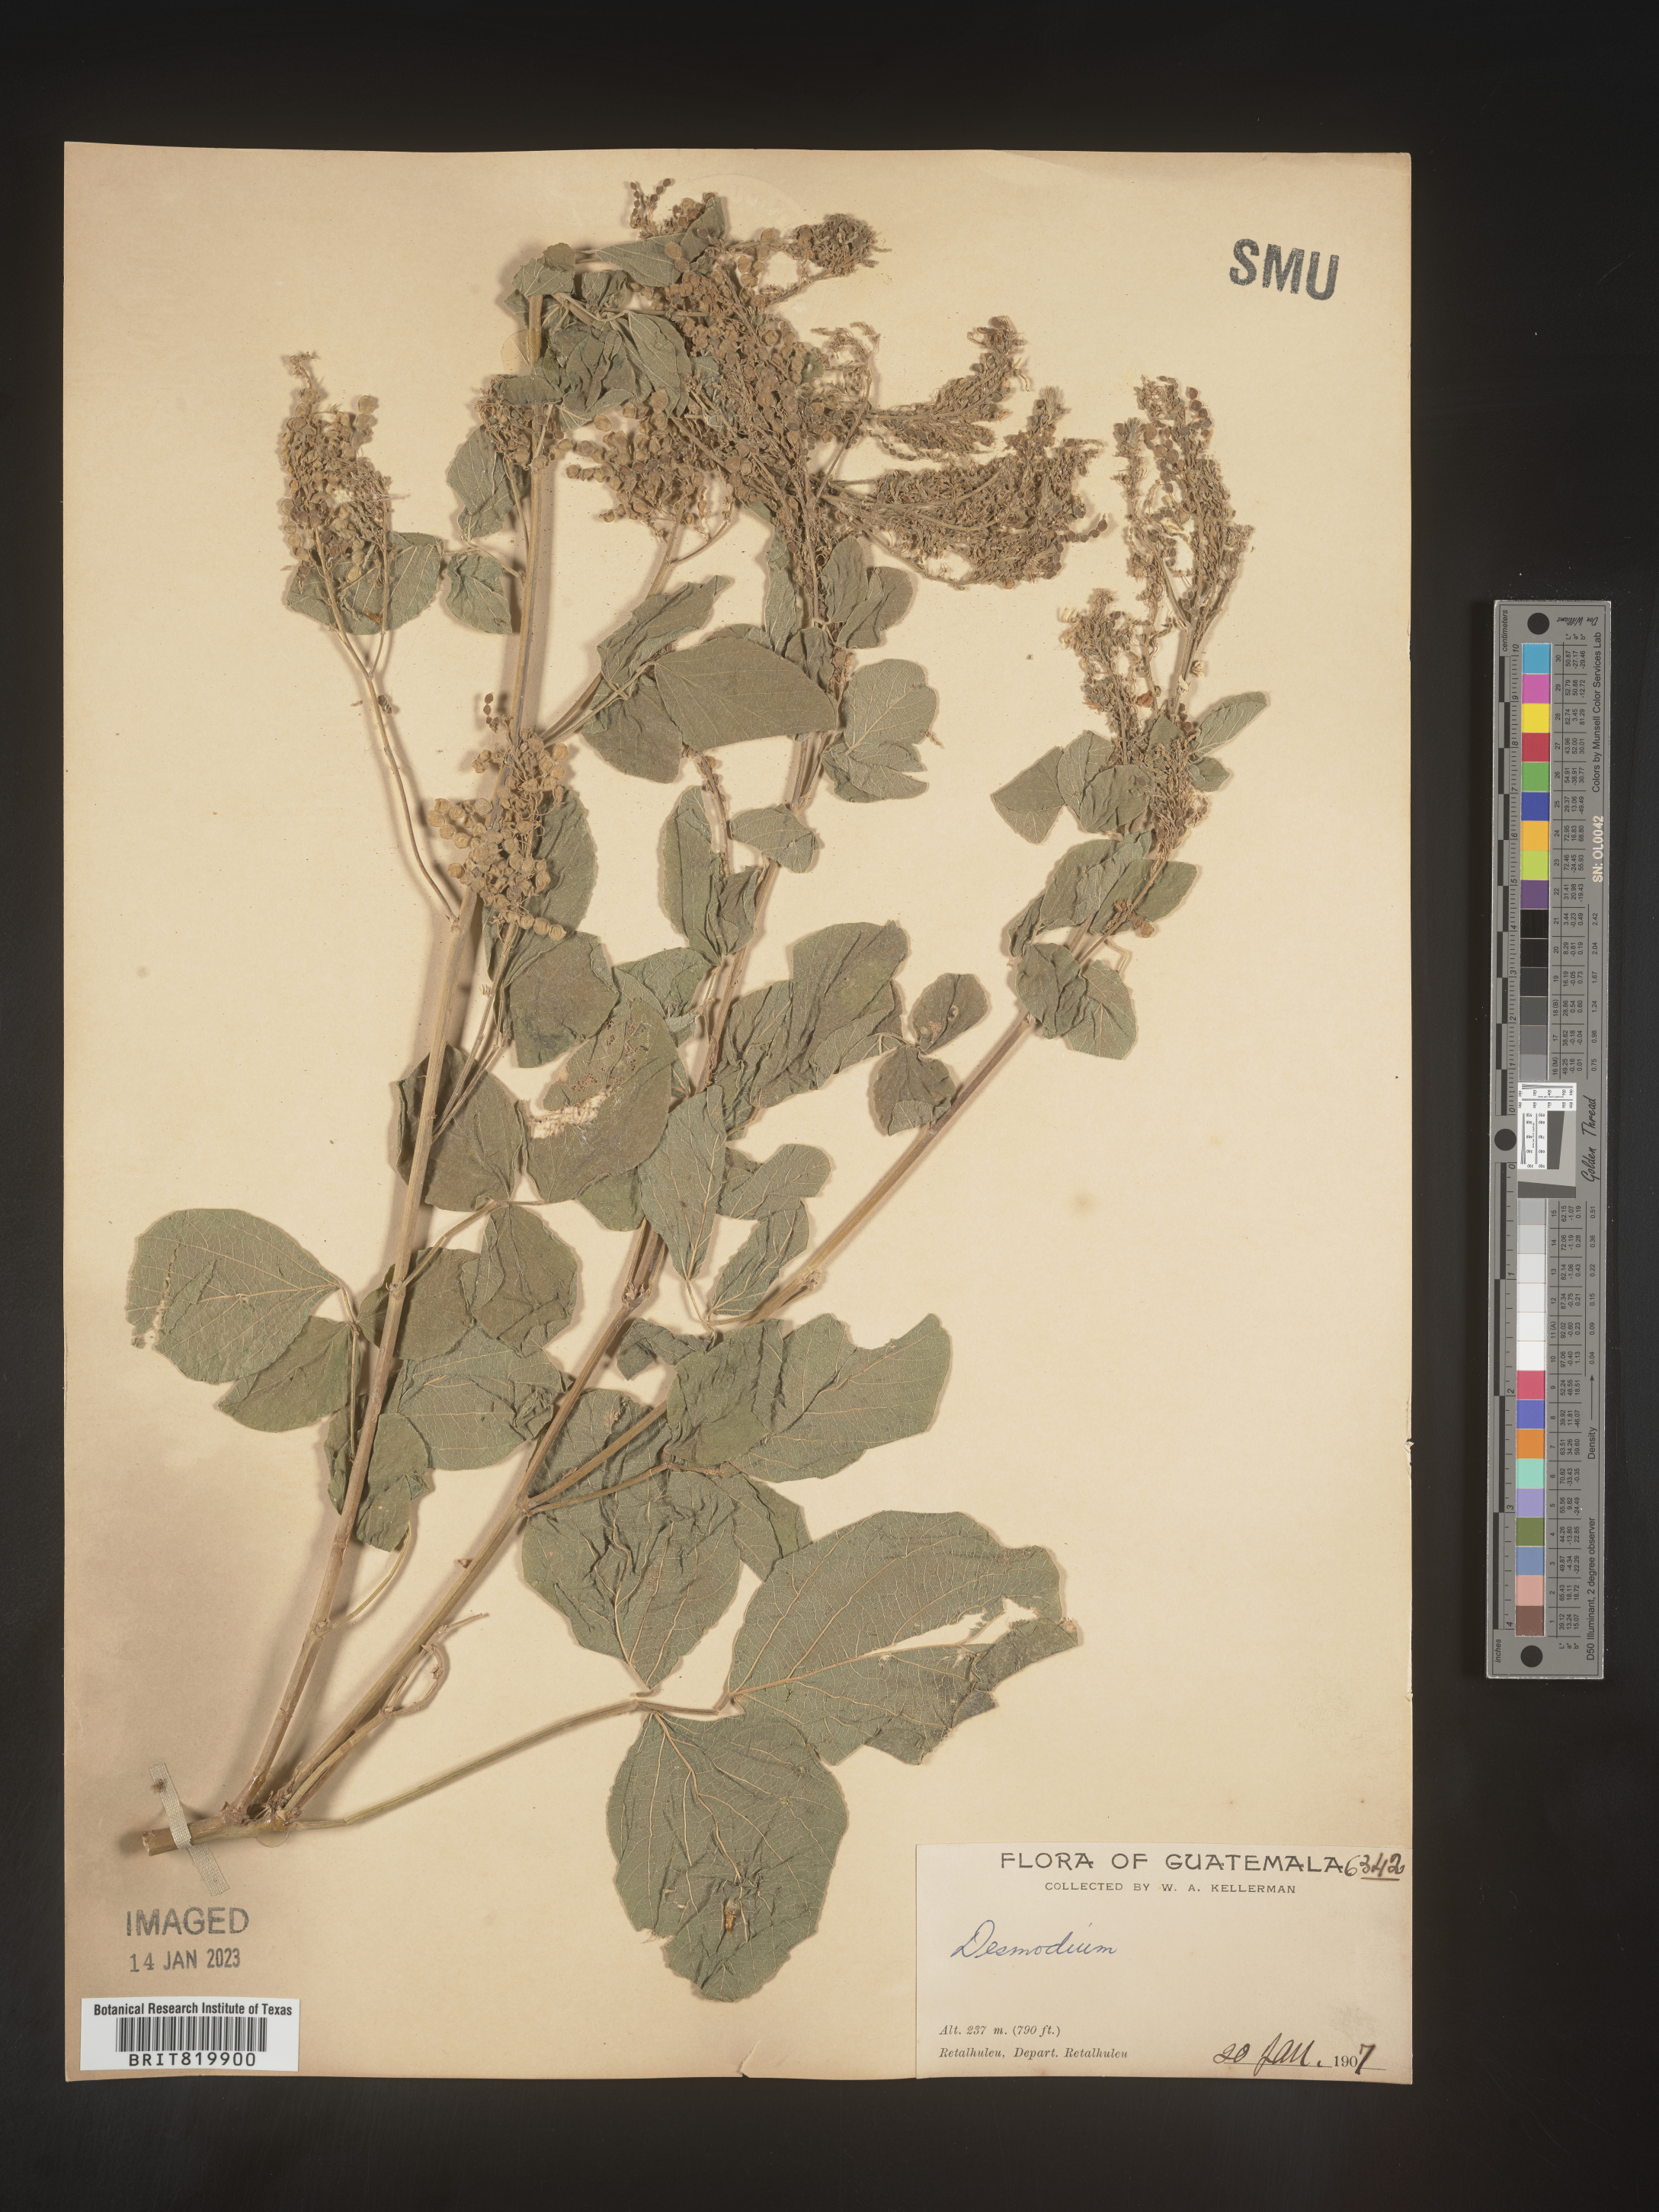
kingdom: Plantae
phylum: Tracheophyta
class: Magnoliopsida
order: Fabales
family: Fabaceae
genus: Desmodium
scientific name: Desmodium
